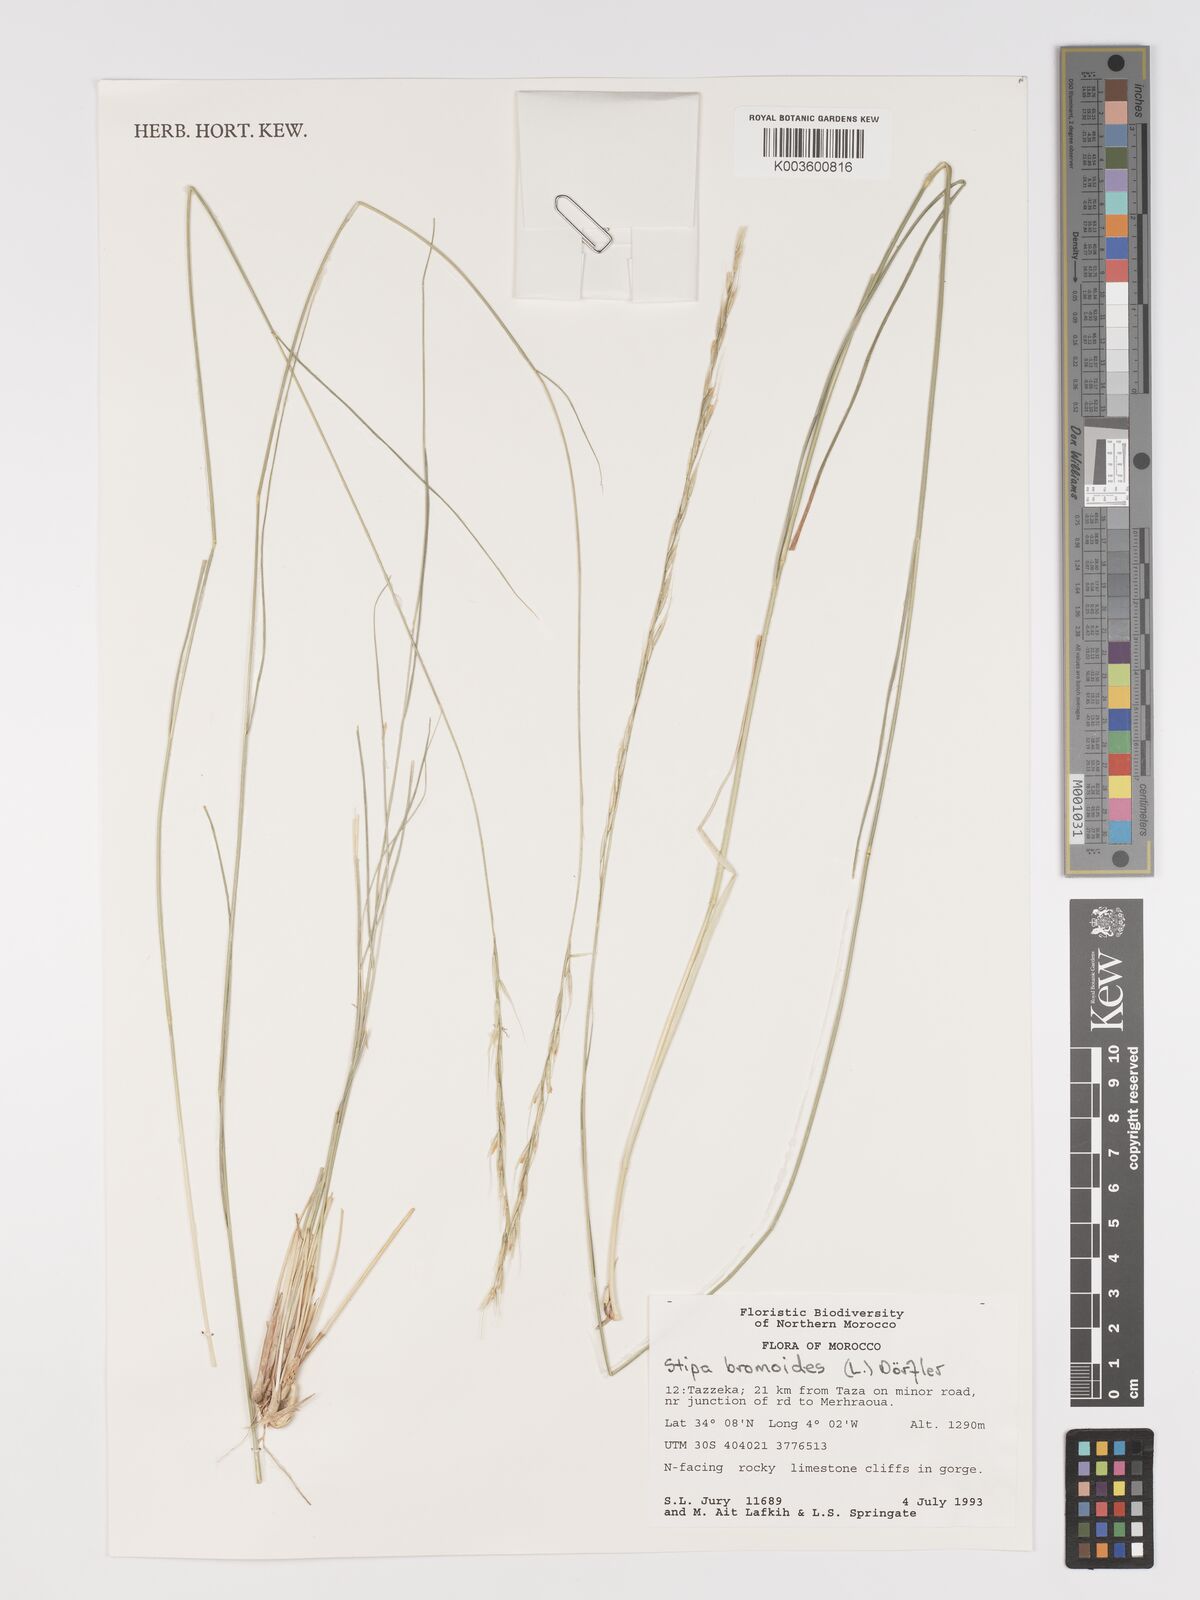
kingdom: Plantae
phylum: Tracheophyta
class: Liliopsida
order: Poales
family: Poaceae
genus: Achnatherum
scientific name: Achnatherum bromoides
